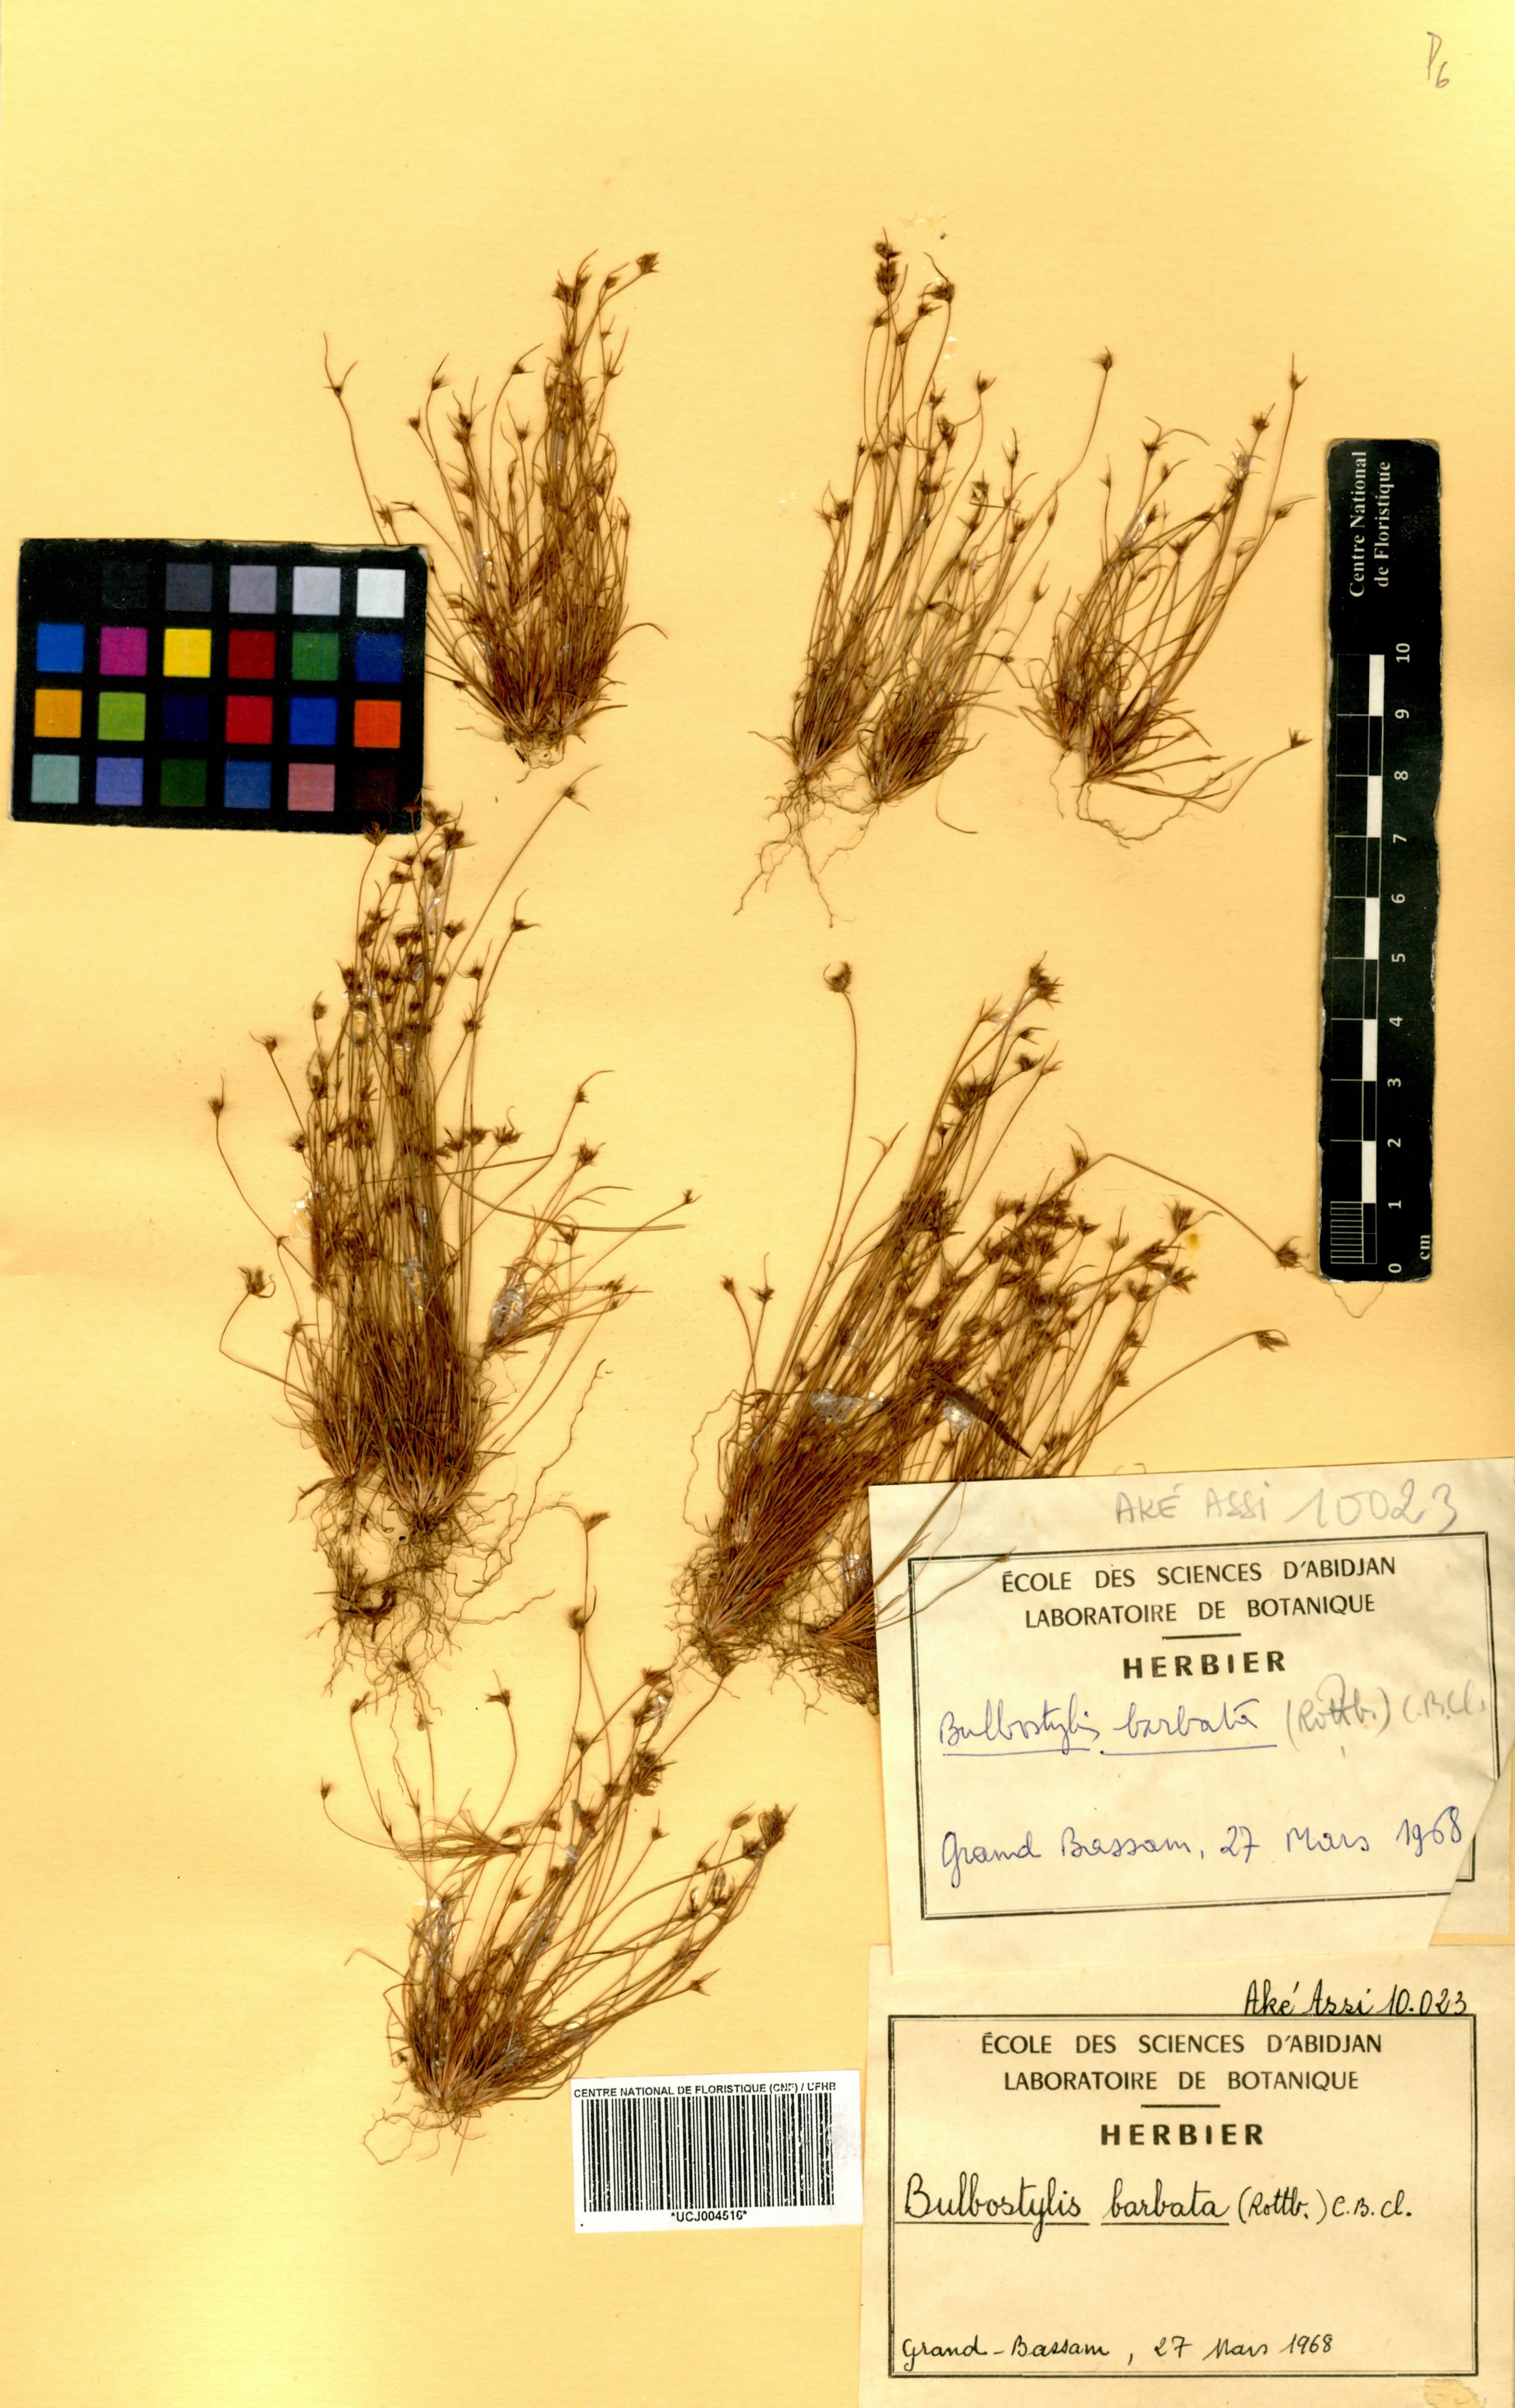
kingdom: Plantae
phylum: Tracheophyta
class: Liliopsida
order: Poales
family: Cyperaceae
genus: Bulbostylis
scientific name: Bulbostylis barbata
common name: Watergrass
